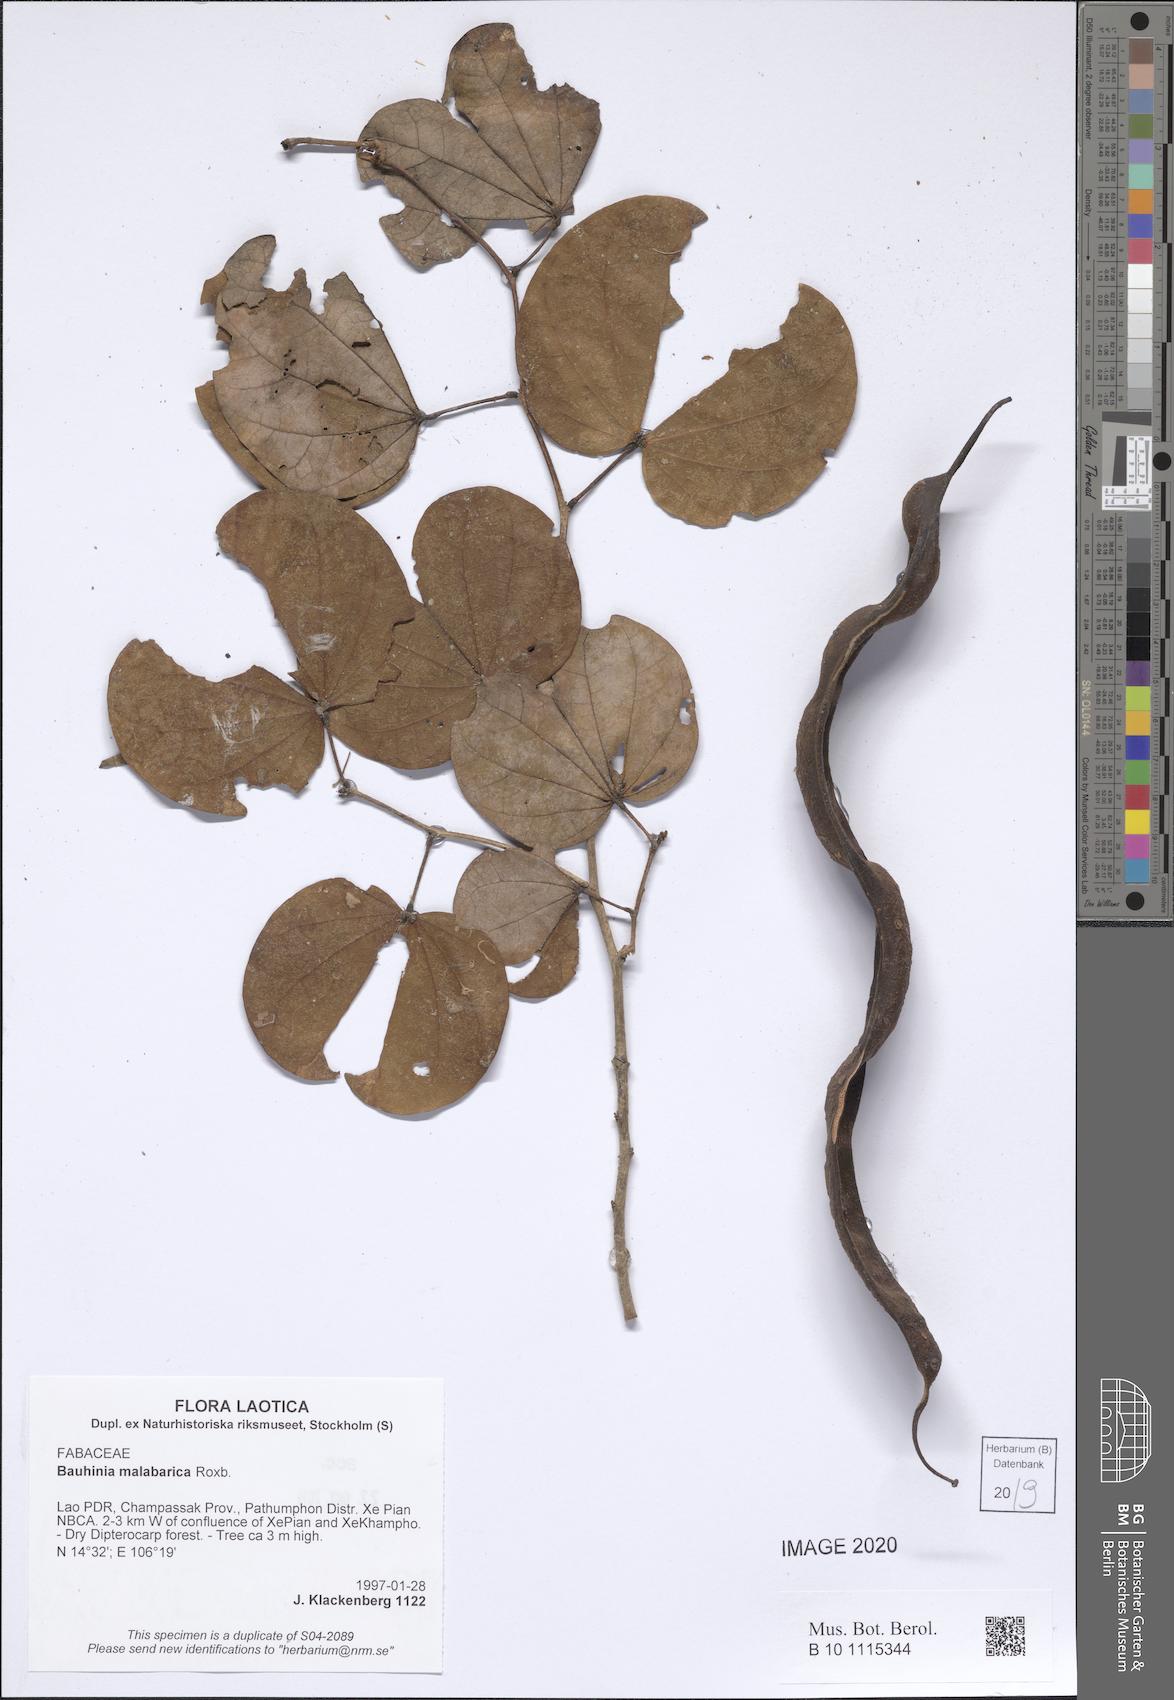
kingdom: Plantae
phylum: Tracheophyta
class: Magnoliopsida
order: Fabales
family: Fabaceae
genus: Piliostigma
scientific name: Piliostigma malabaricum
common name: Malabar bauhinia
